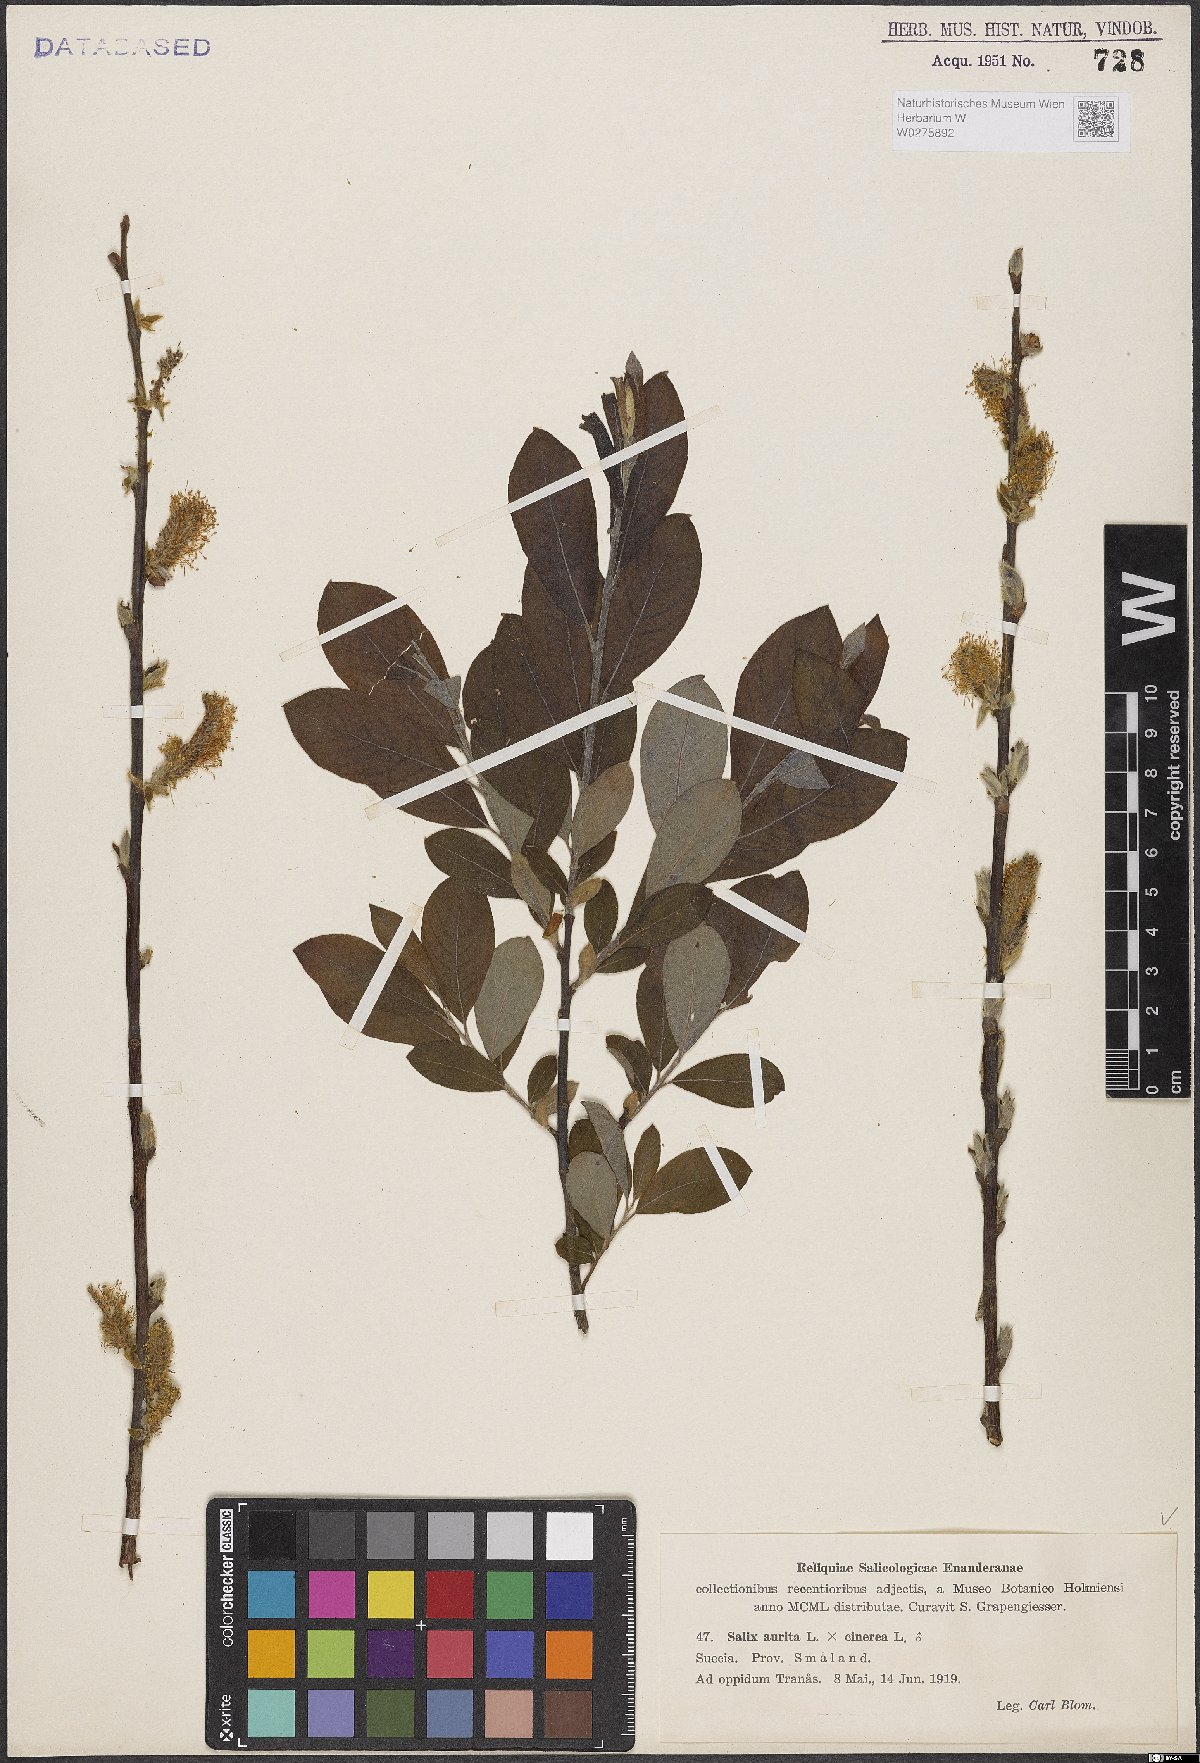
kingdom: Plantae
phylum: Tracheophyta
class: Magnoliopsida
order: Malpighiales
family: Salicaceae
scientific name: Salicaceae
